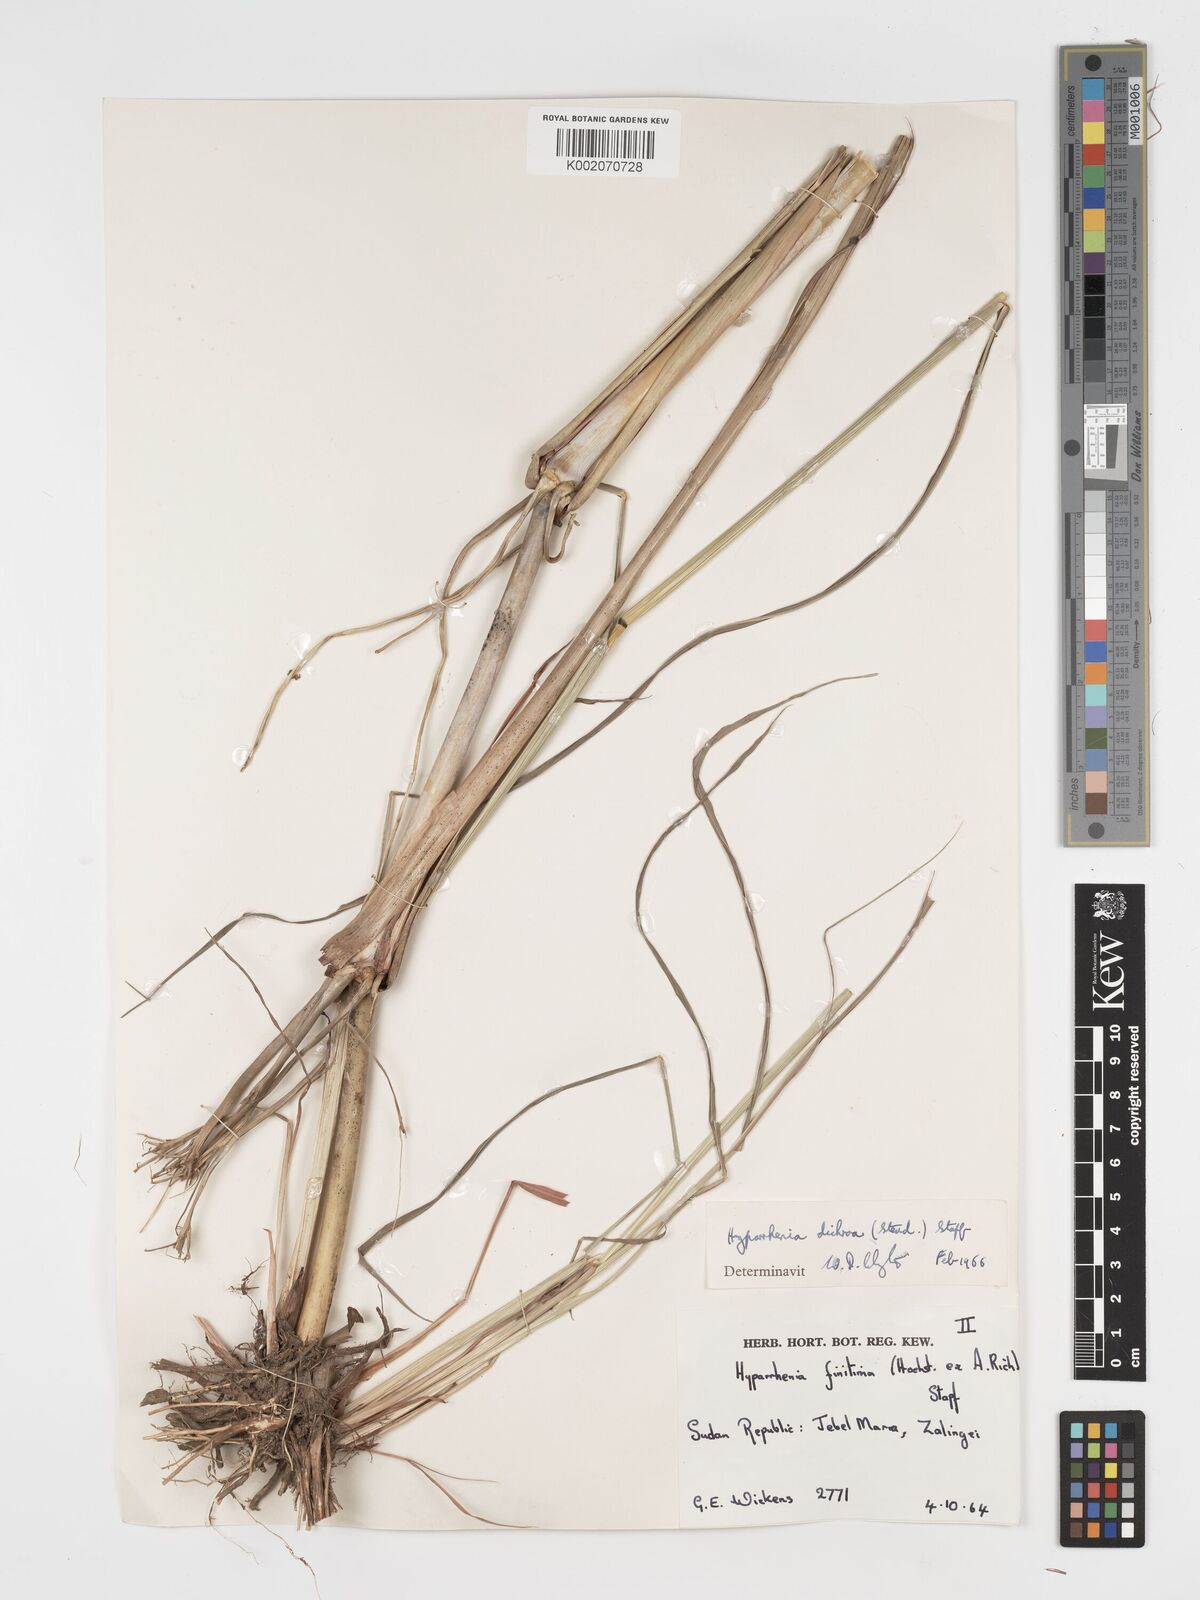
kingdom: Plantae
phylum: Tracheophyta
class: Liliopsida
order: Poales
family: Poaceae
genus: Hyparrhenia
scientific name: Hyparrhenia dichroa
